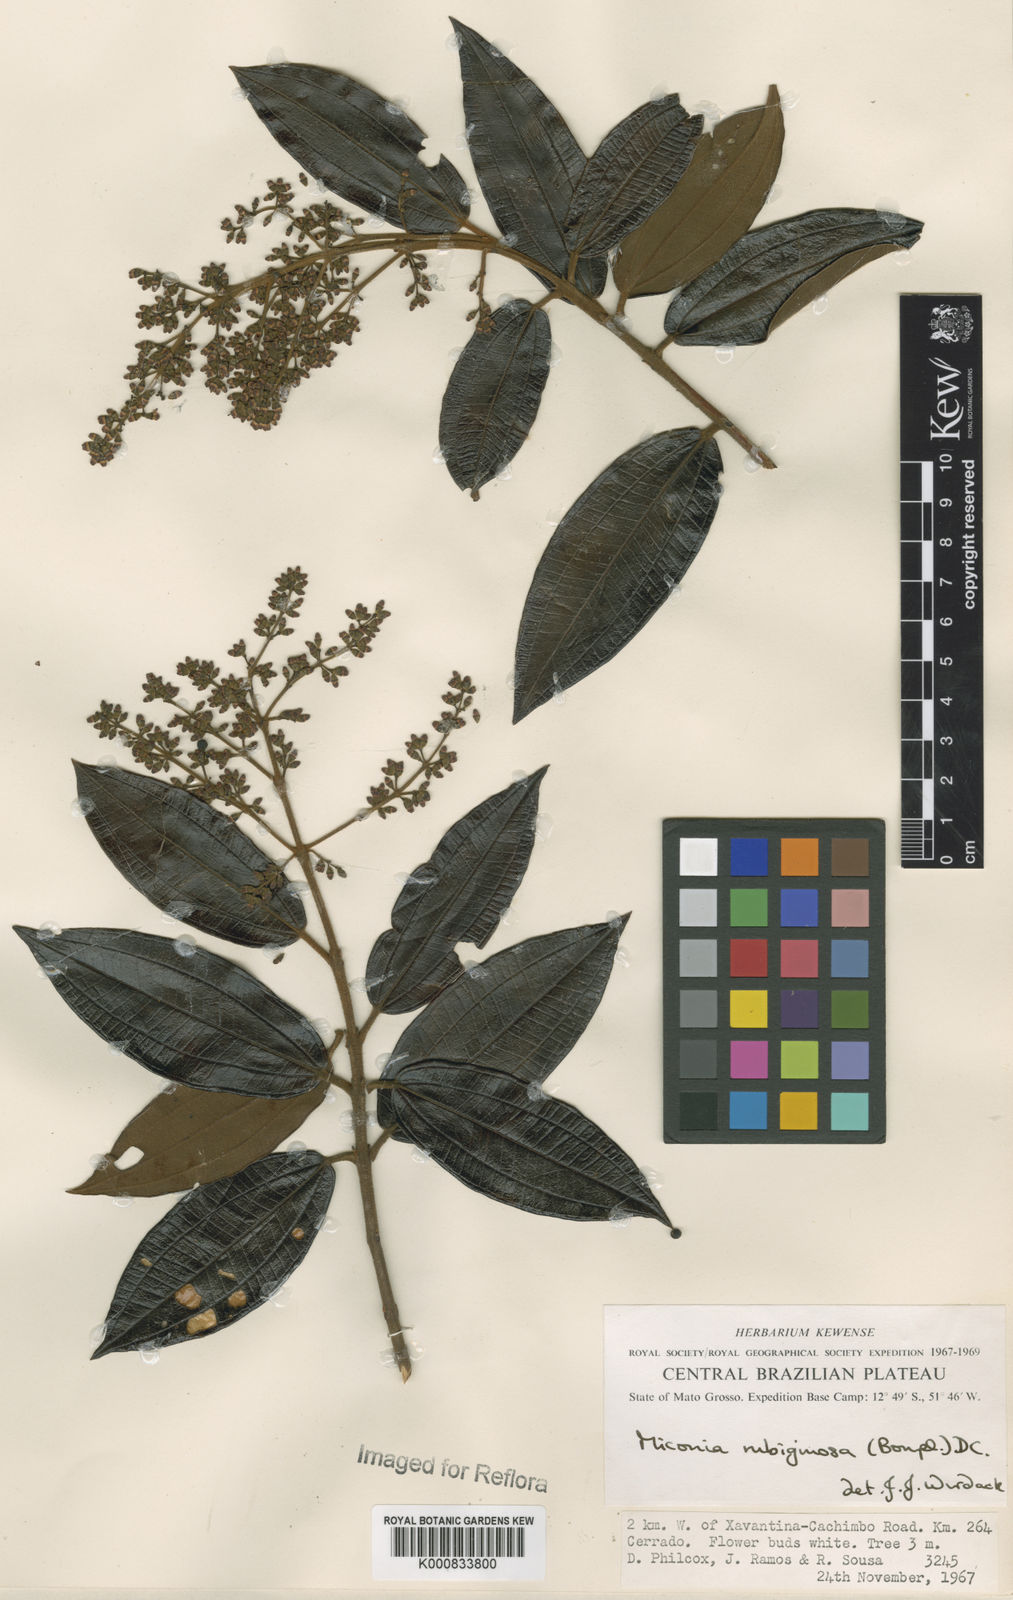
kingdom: Plantae
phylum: Tracheophyta
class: Magnoliopsida
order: Myrtales
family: Melastomataceae
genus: Miconia
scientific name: Miconia rubiginosa
